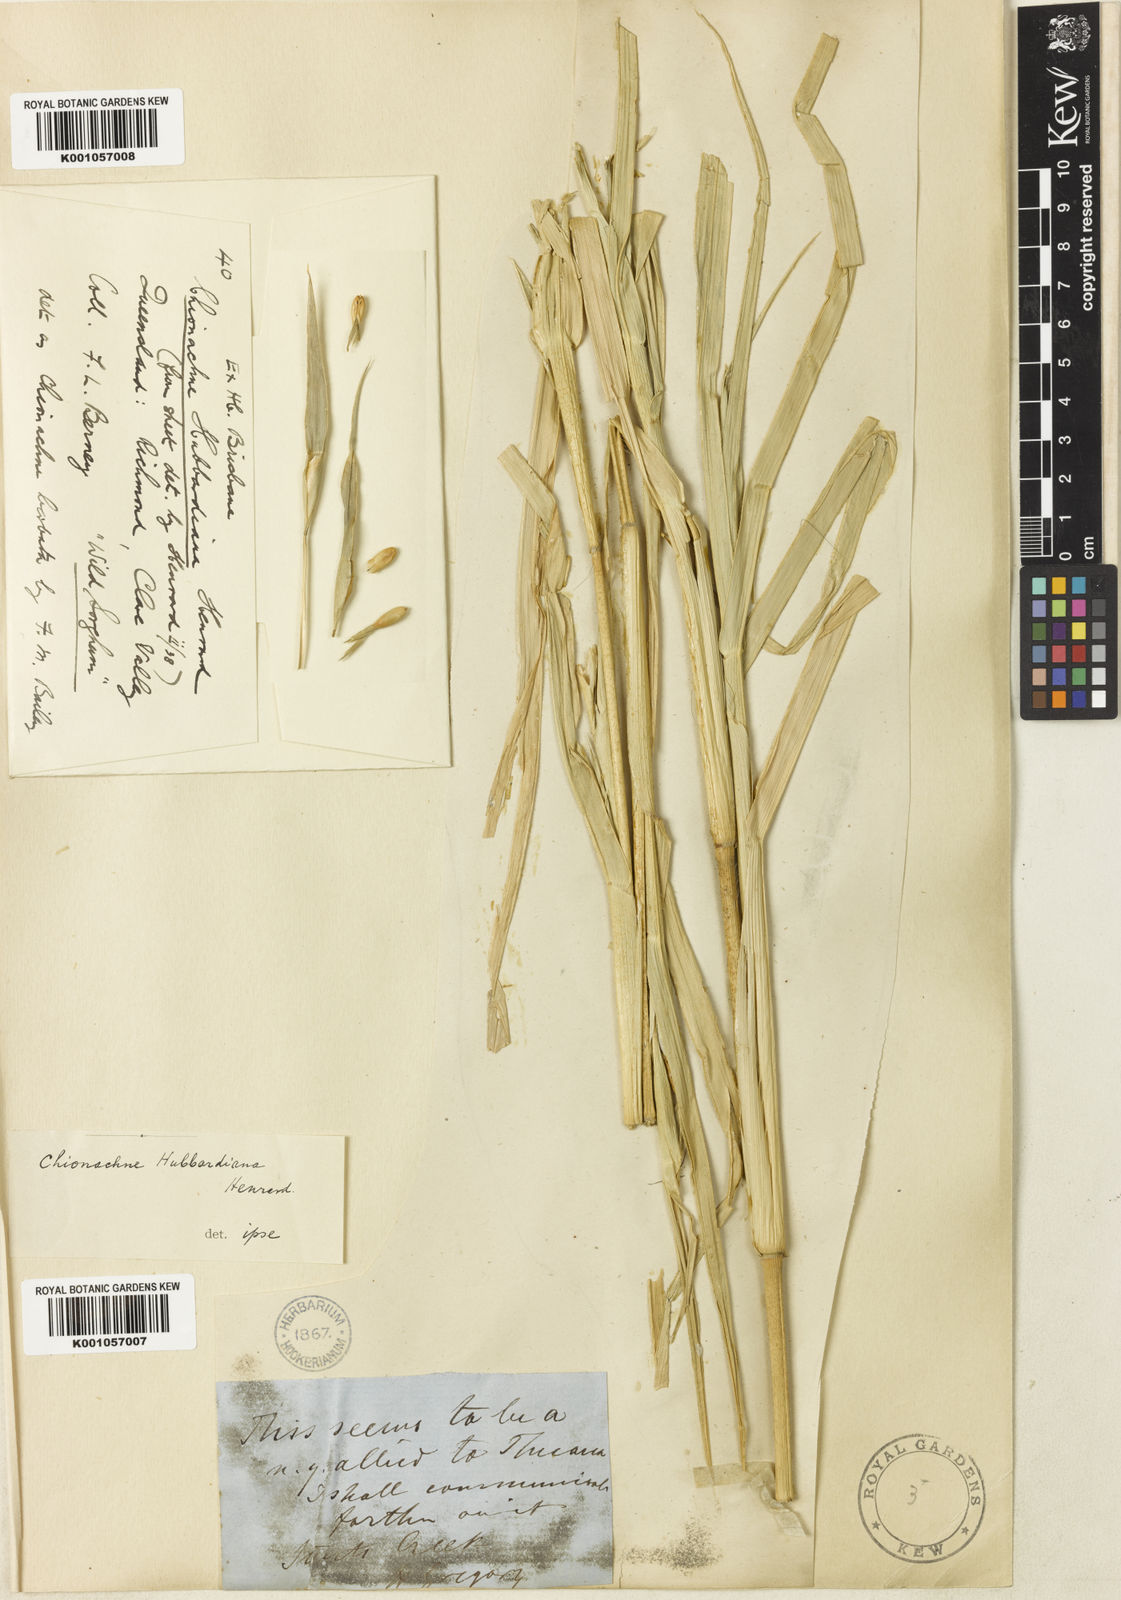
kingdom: Plantae
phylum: Tracheophyta
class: Liliopsida
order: Poales
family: Poaceae
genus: Polytoca
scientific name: Polytoca hubbardiana
